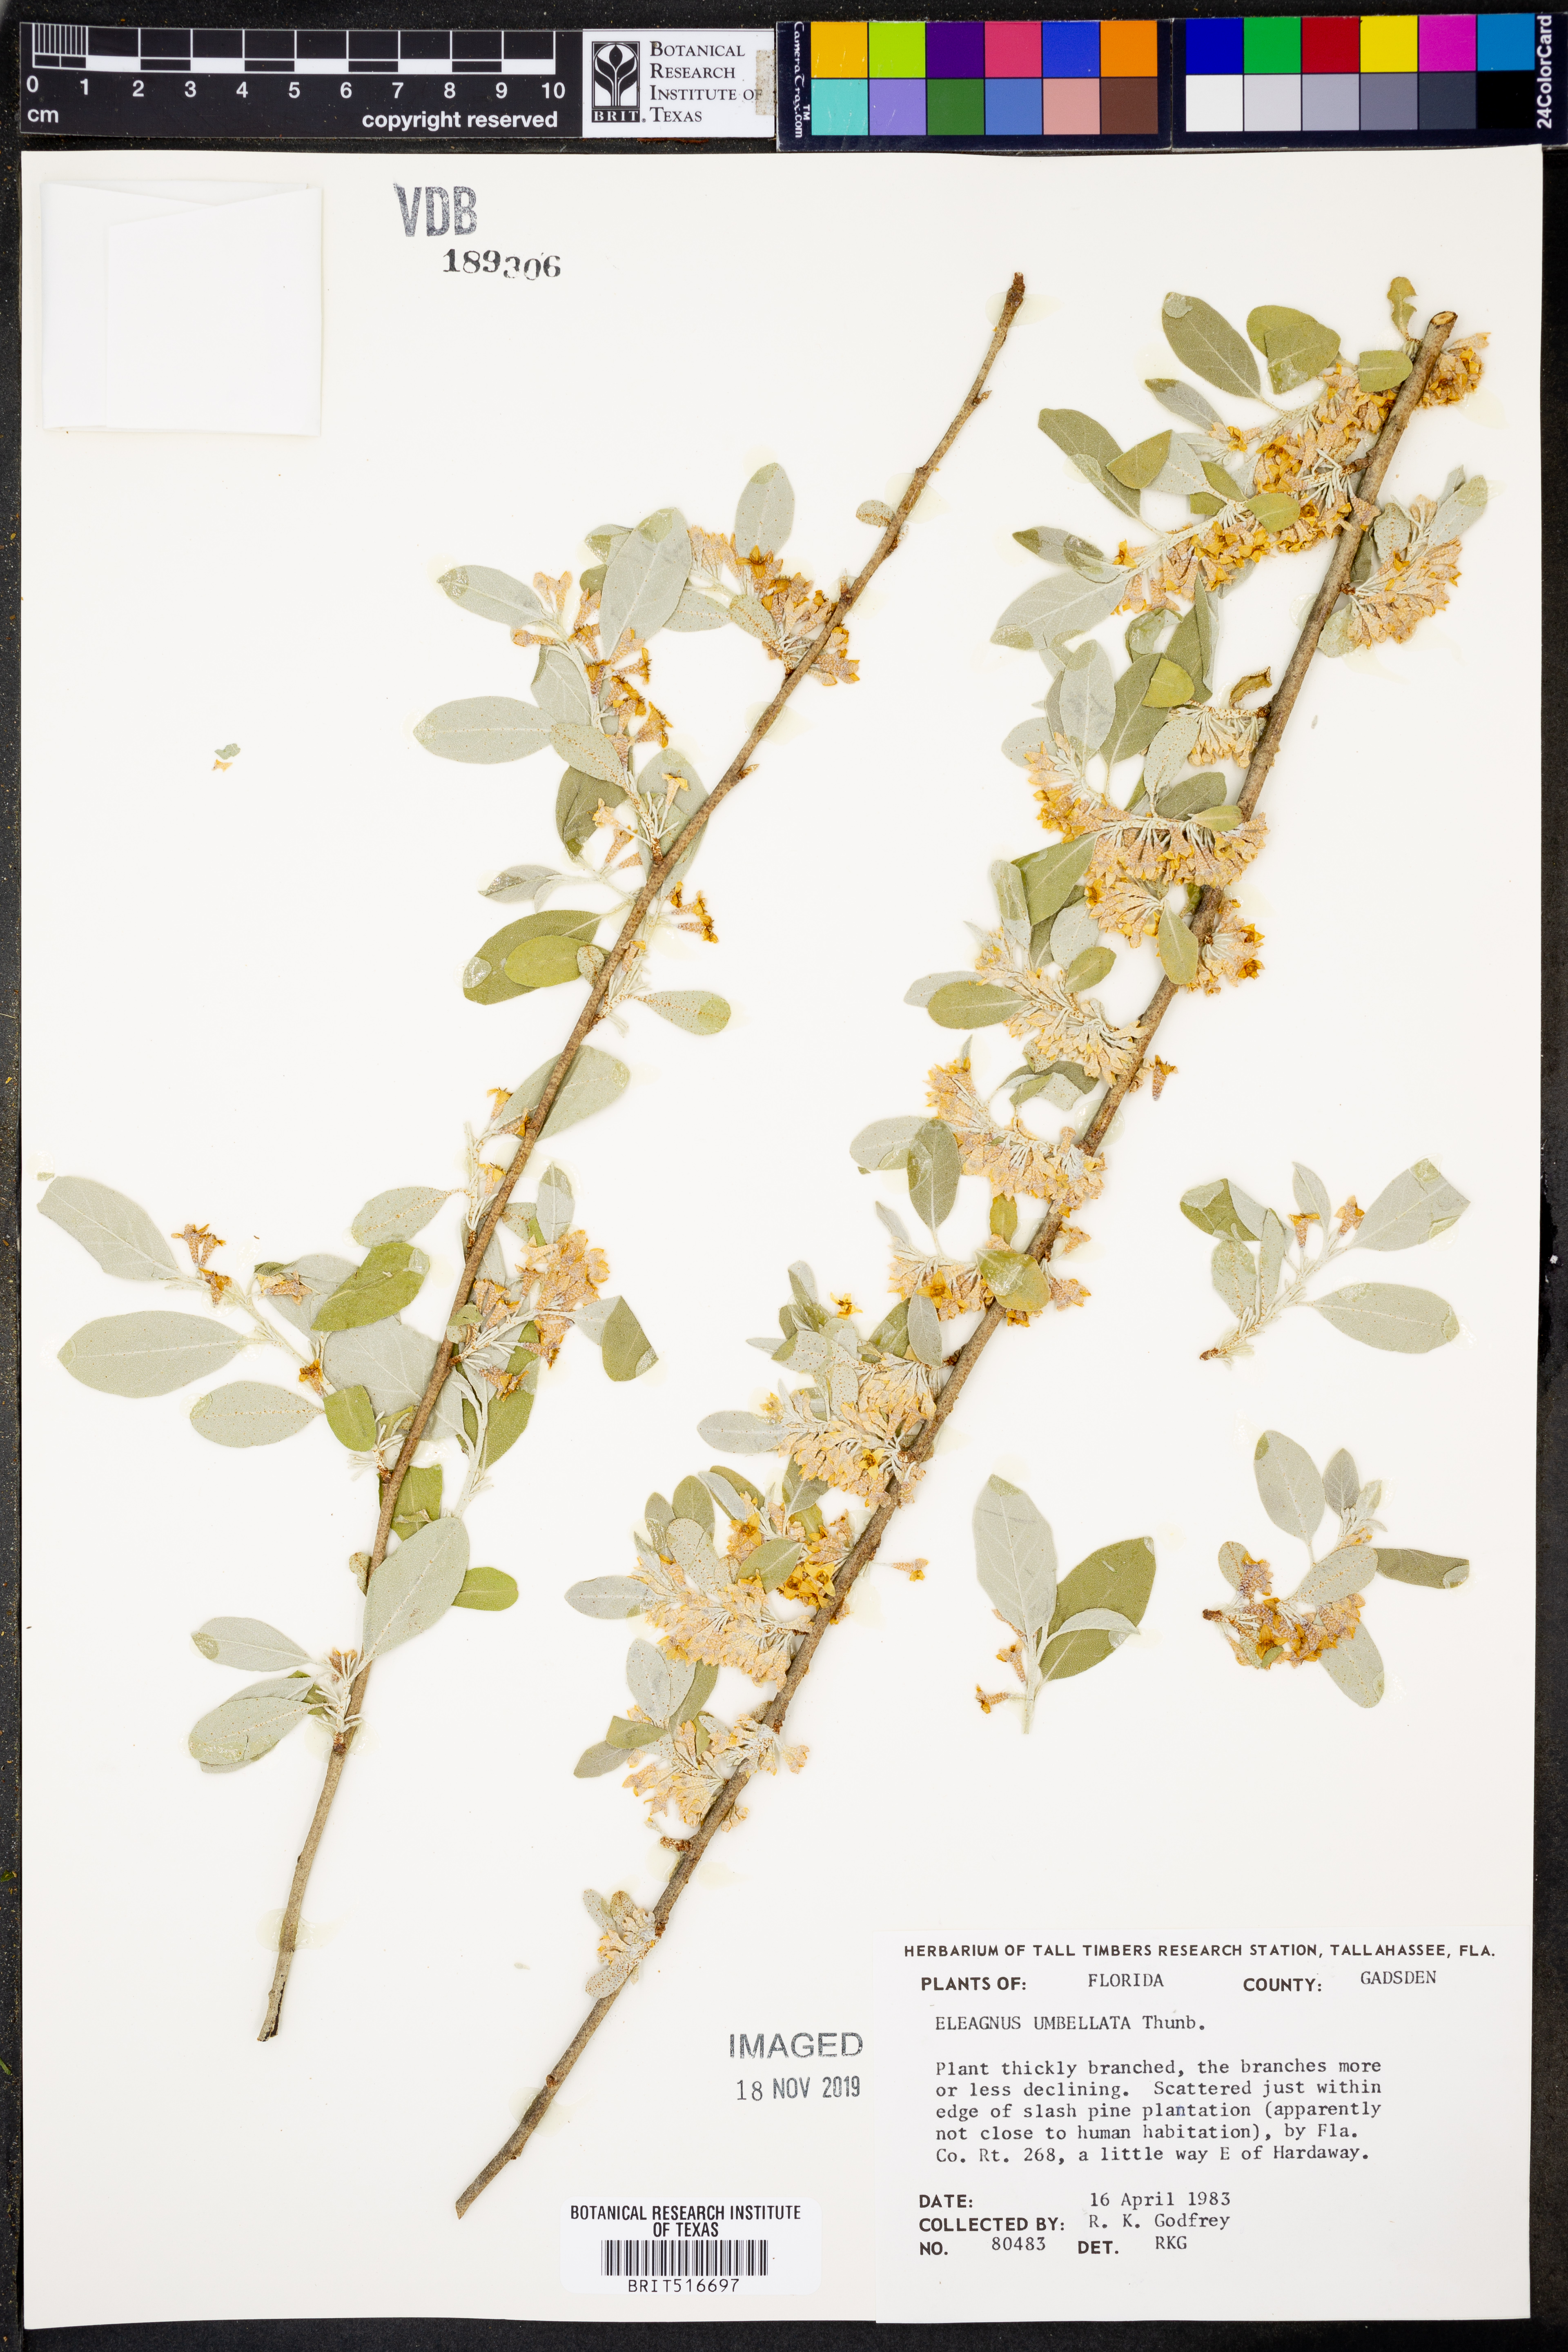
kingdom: Plantae
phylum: Tracheophyta
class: Magnoliopsida
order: Rosales
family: Elaeagnaceae
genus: Elaeagnus
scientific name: Elaeagnus umbellata
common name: Autumn olive
